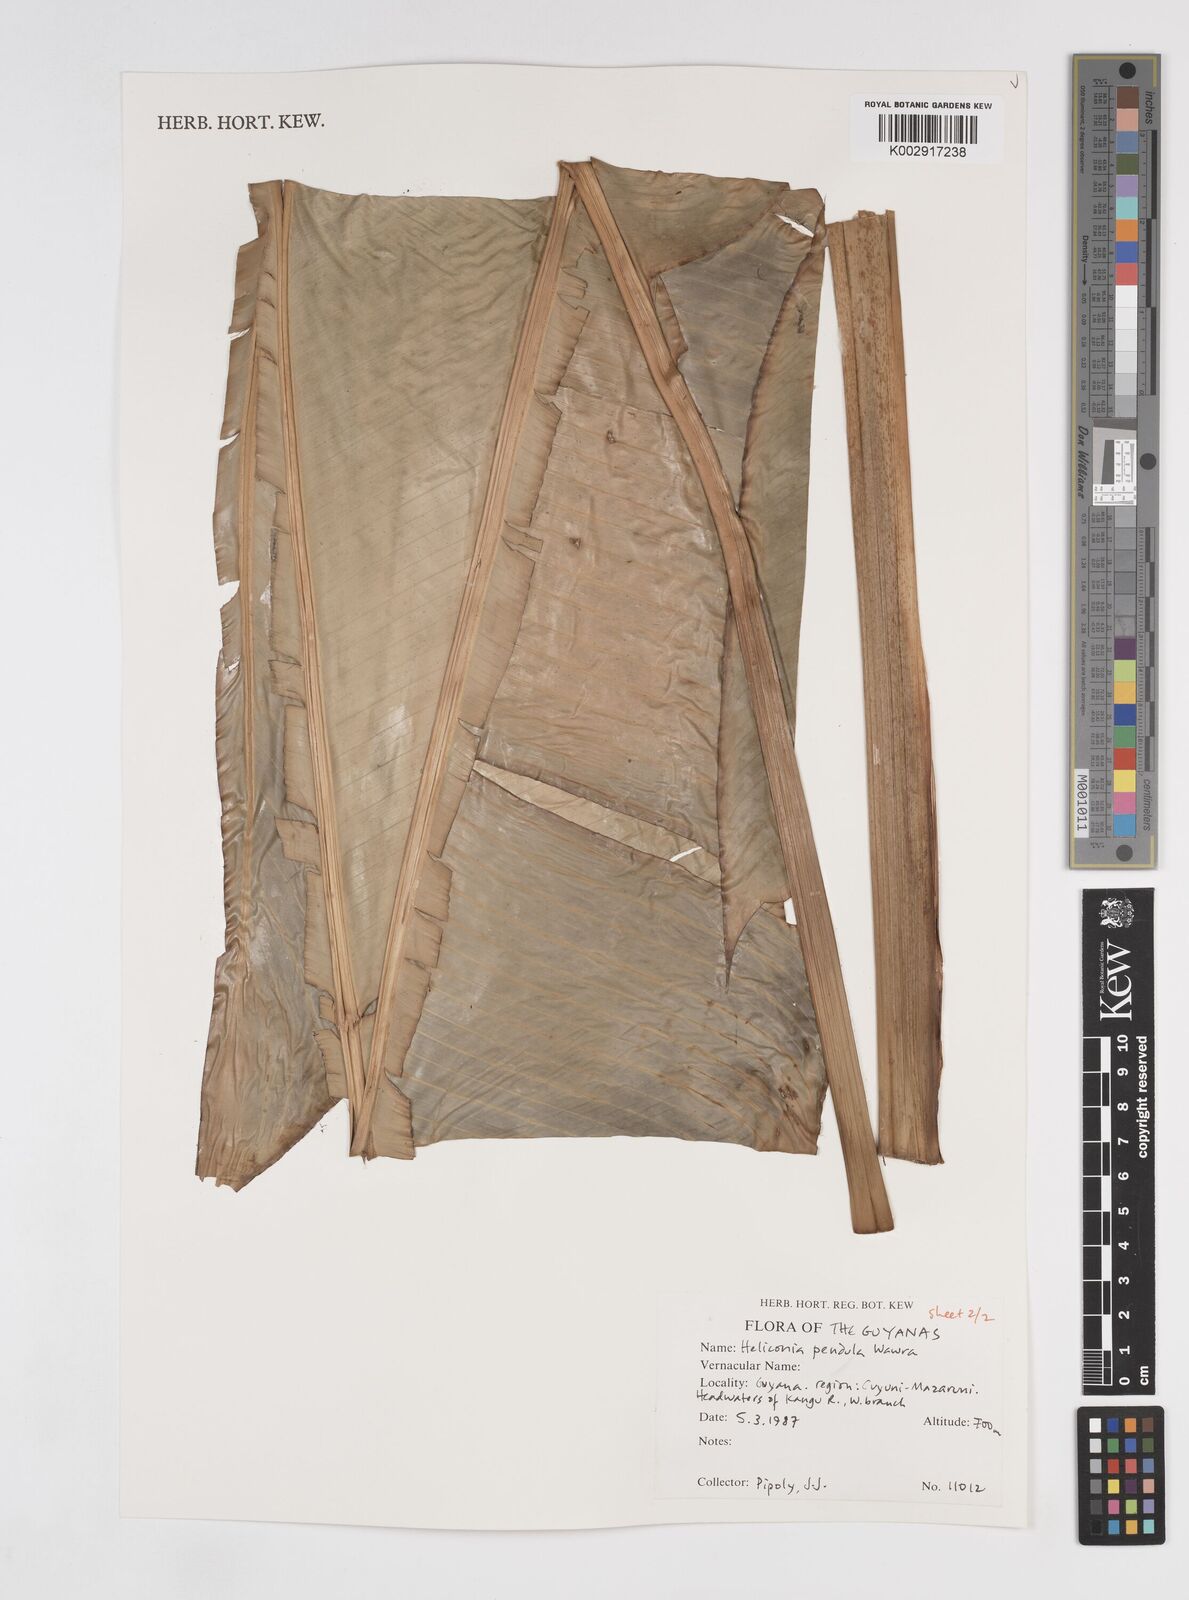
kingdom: Plantae
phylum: Tracheophyta
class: Liliopsida
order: Zingiberales
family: Heliconiaceae
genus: Heliconia
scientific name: Heliconia pendula
